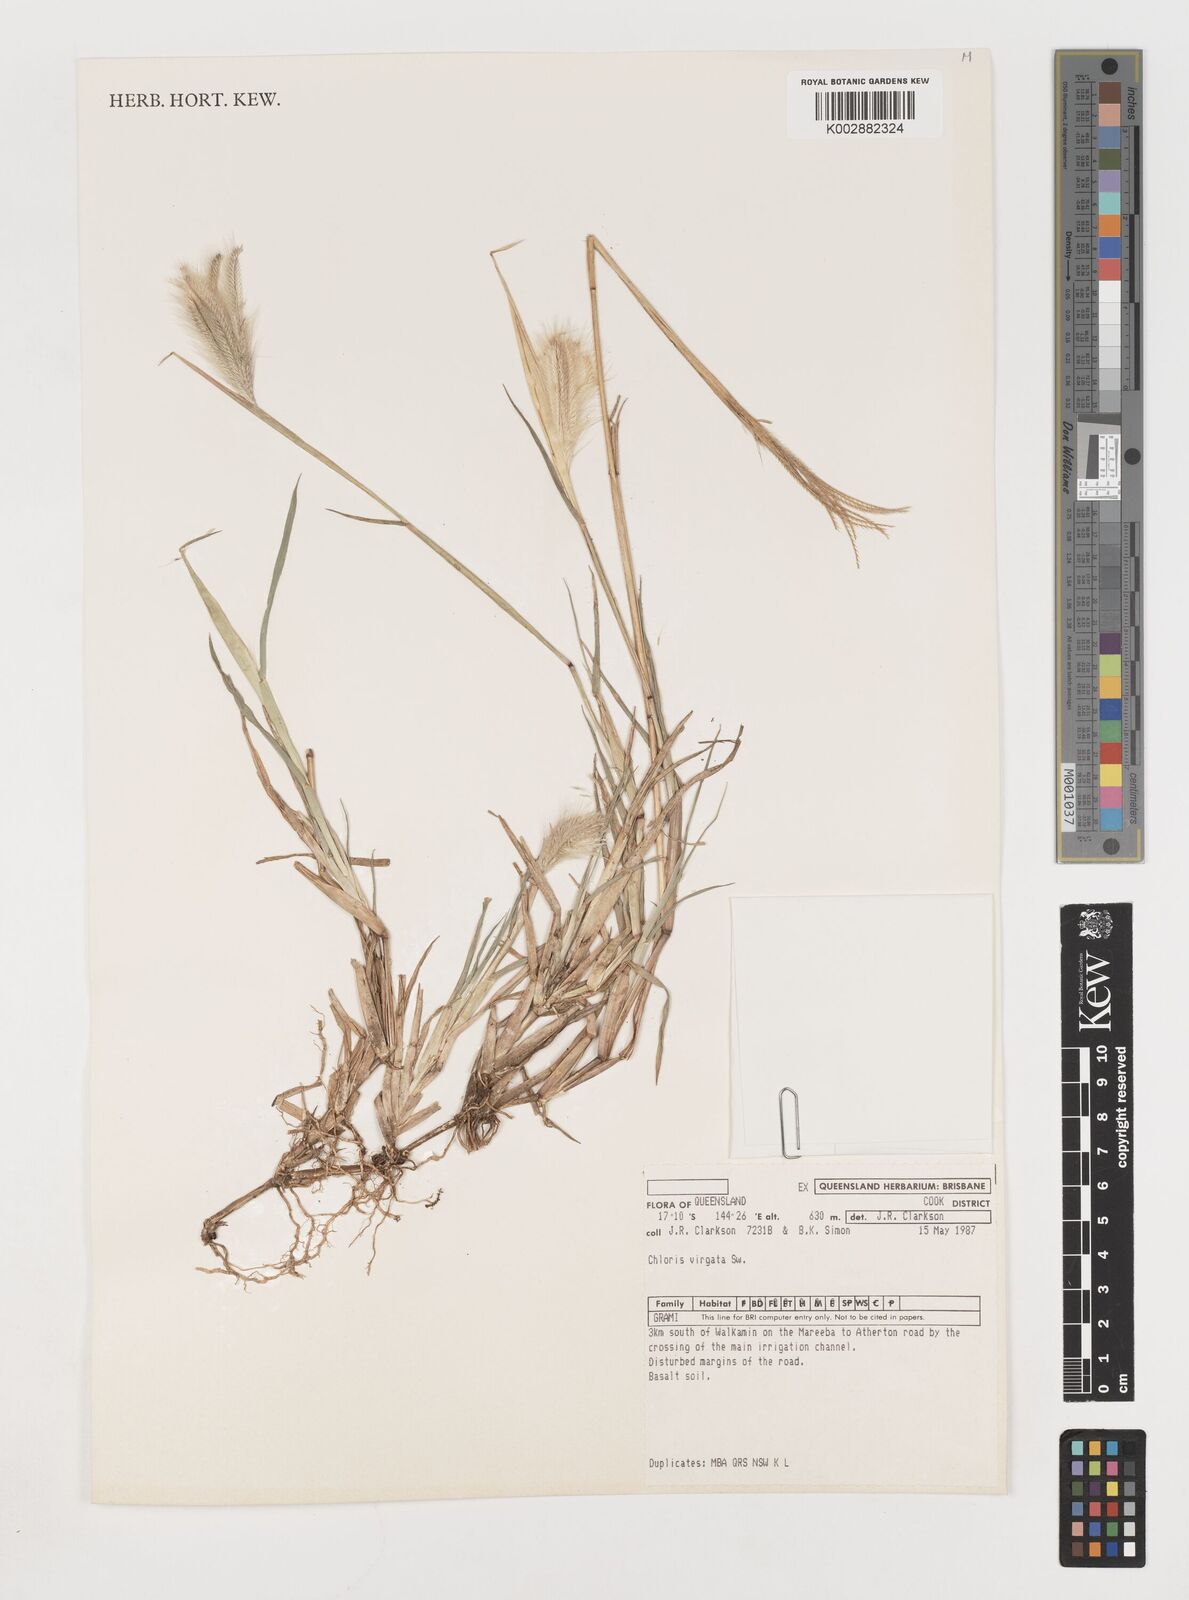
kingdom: Plantae
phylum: Tracheophyta
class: Liliopsida
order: Poales
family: Poaceae
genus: Chloris
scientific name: Chloris virgata
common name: Feathery rhodes-grass
